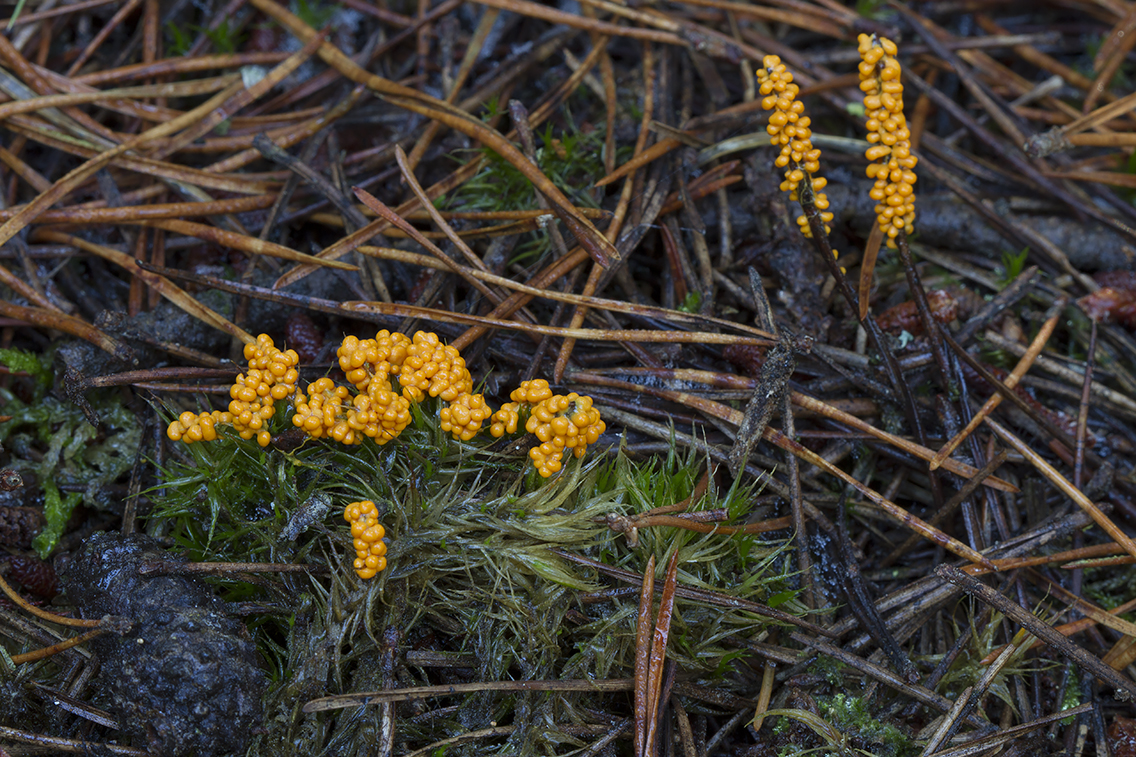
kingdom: Protozoa
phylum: Mycetozoa
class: Myxomycetes
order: Physarales
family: Physaraceae
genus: Leocarpus
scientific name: Leocarpus fragilis
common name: poleret glatfrø
